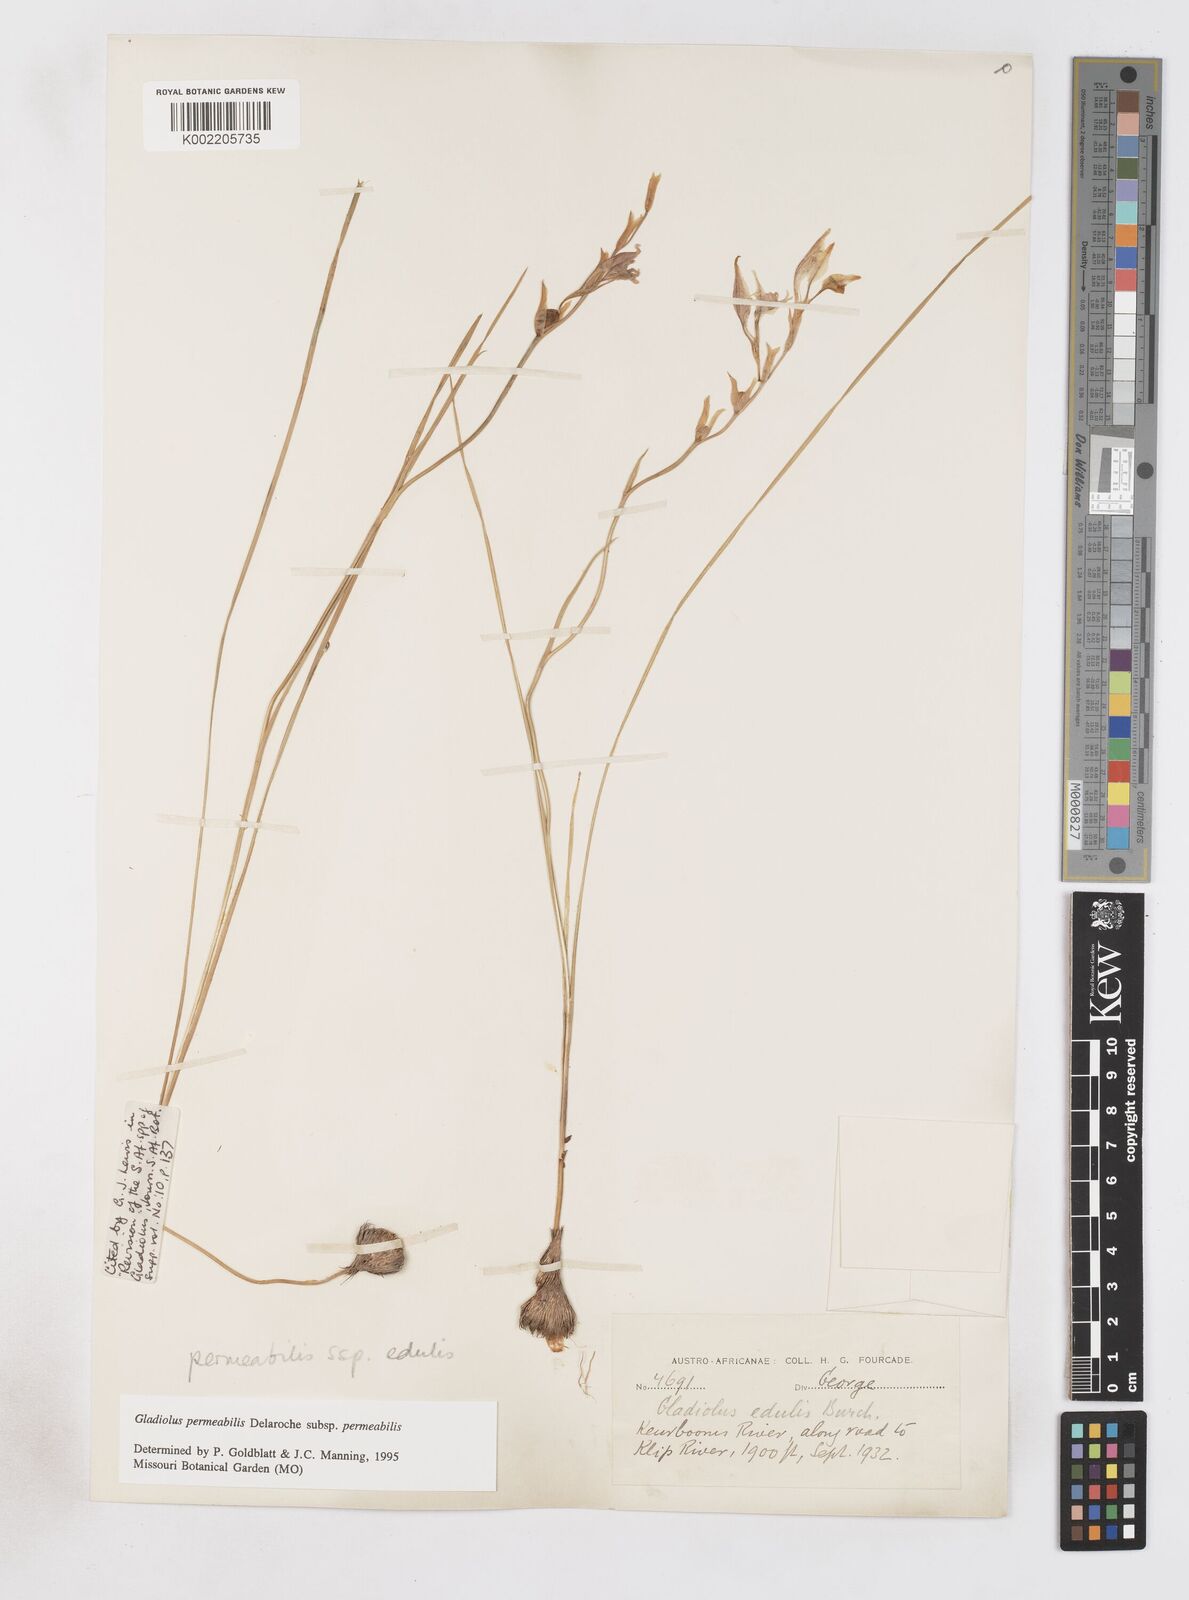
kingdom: Plantae
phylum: Tracheophyta
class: Liliopsida
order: Asparagales
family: Iridaceae
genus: Gladiolus
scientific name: Gladiolus permeabilis
